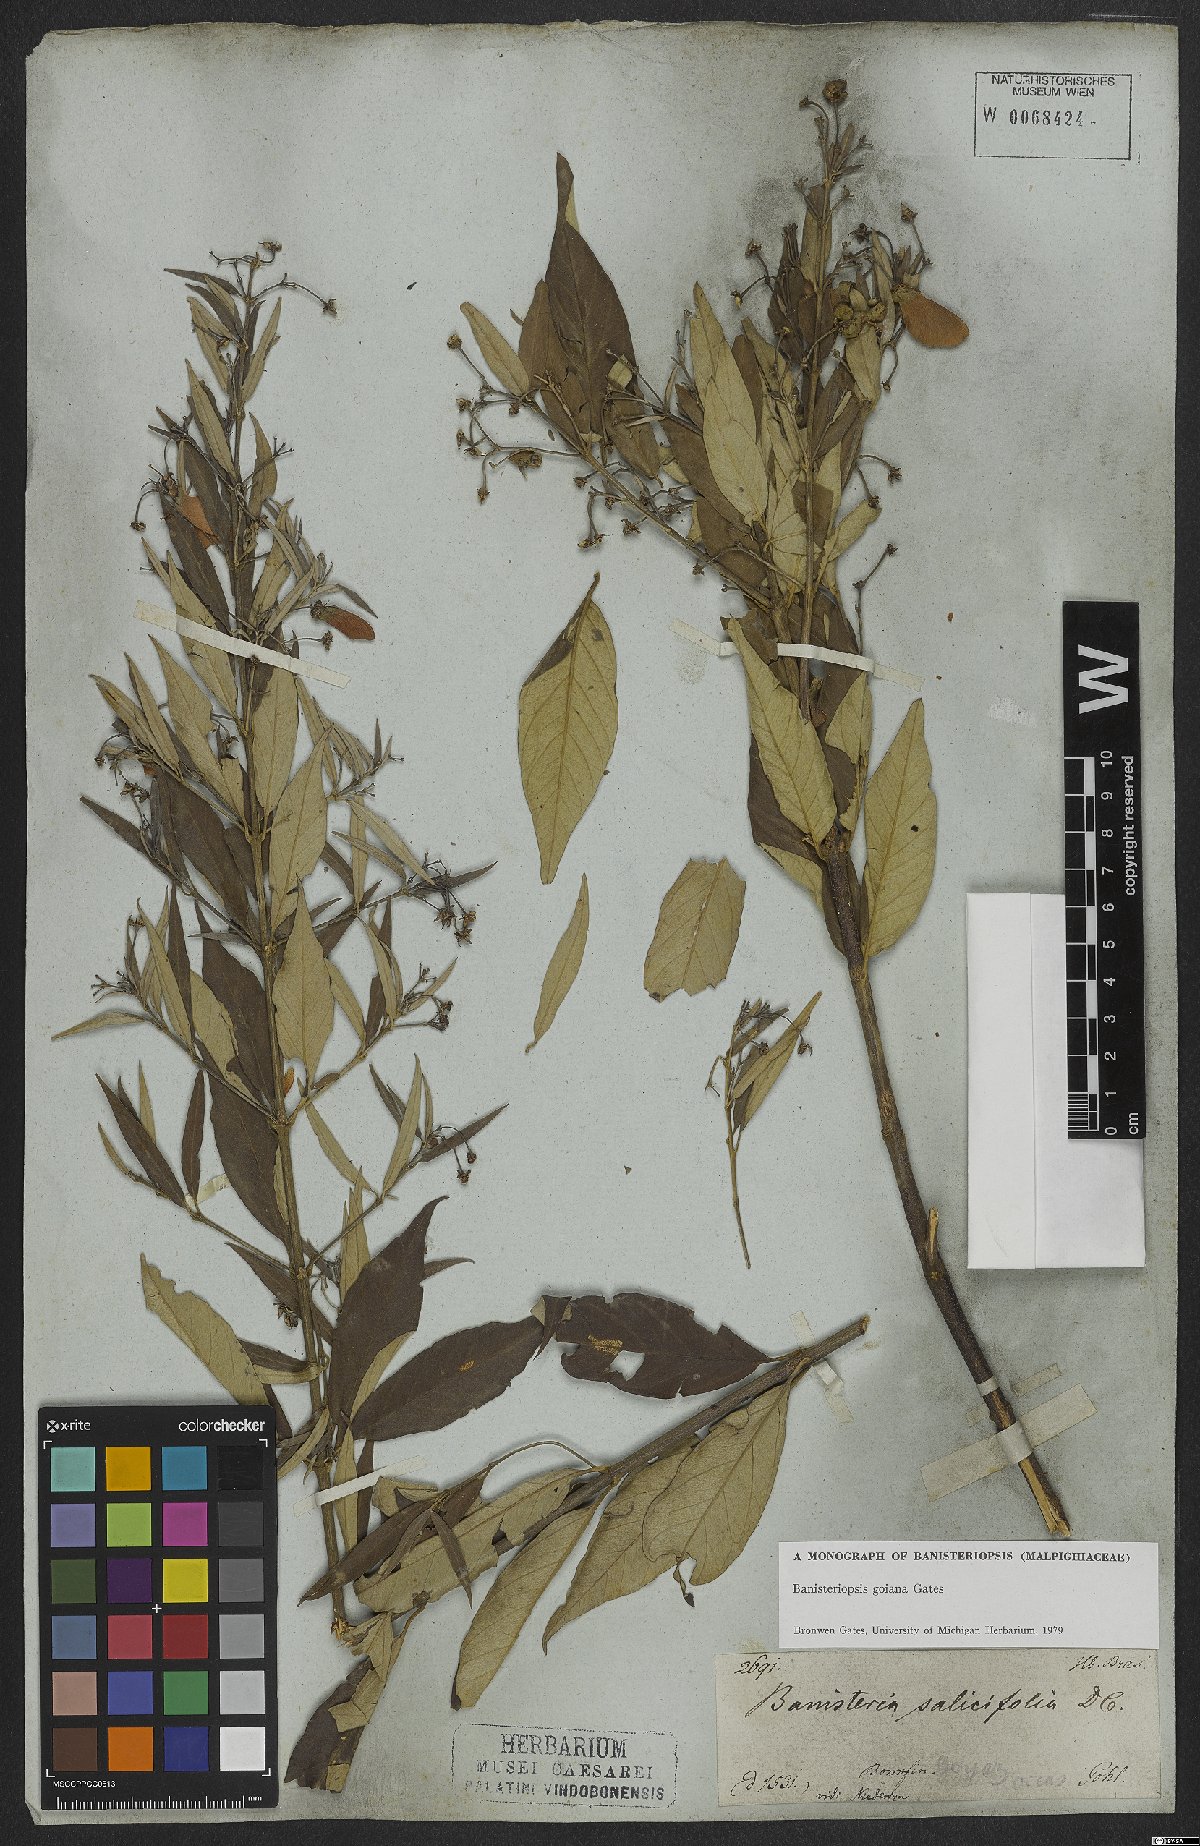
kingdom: Plantae
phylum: Tracheophyta
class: Magnoliopsida
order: Malpighiales
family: Malpighiaceae
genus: Banisteriopsis
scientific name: Banisteriopsis goiana
